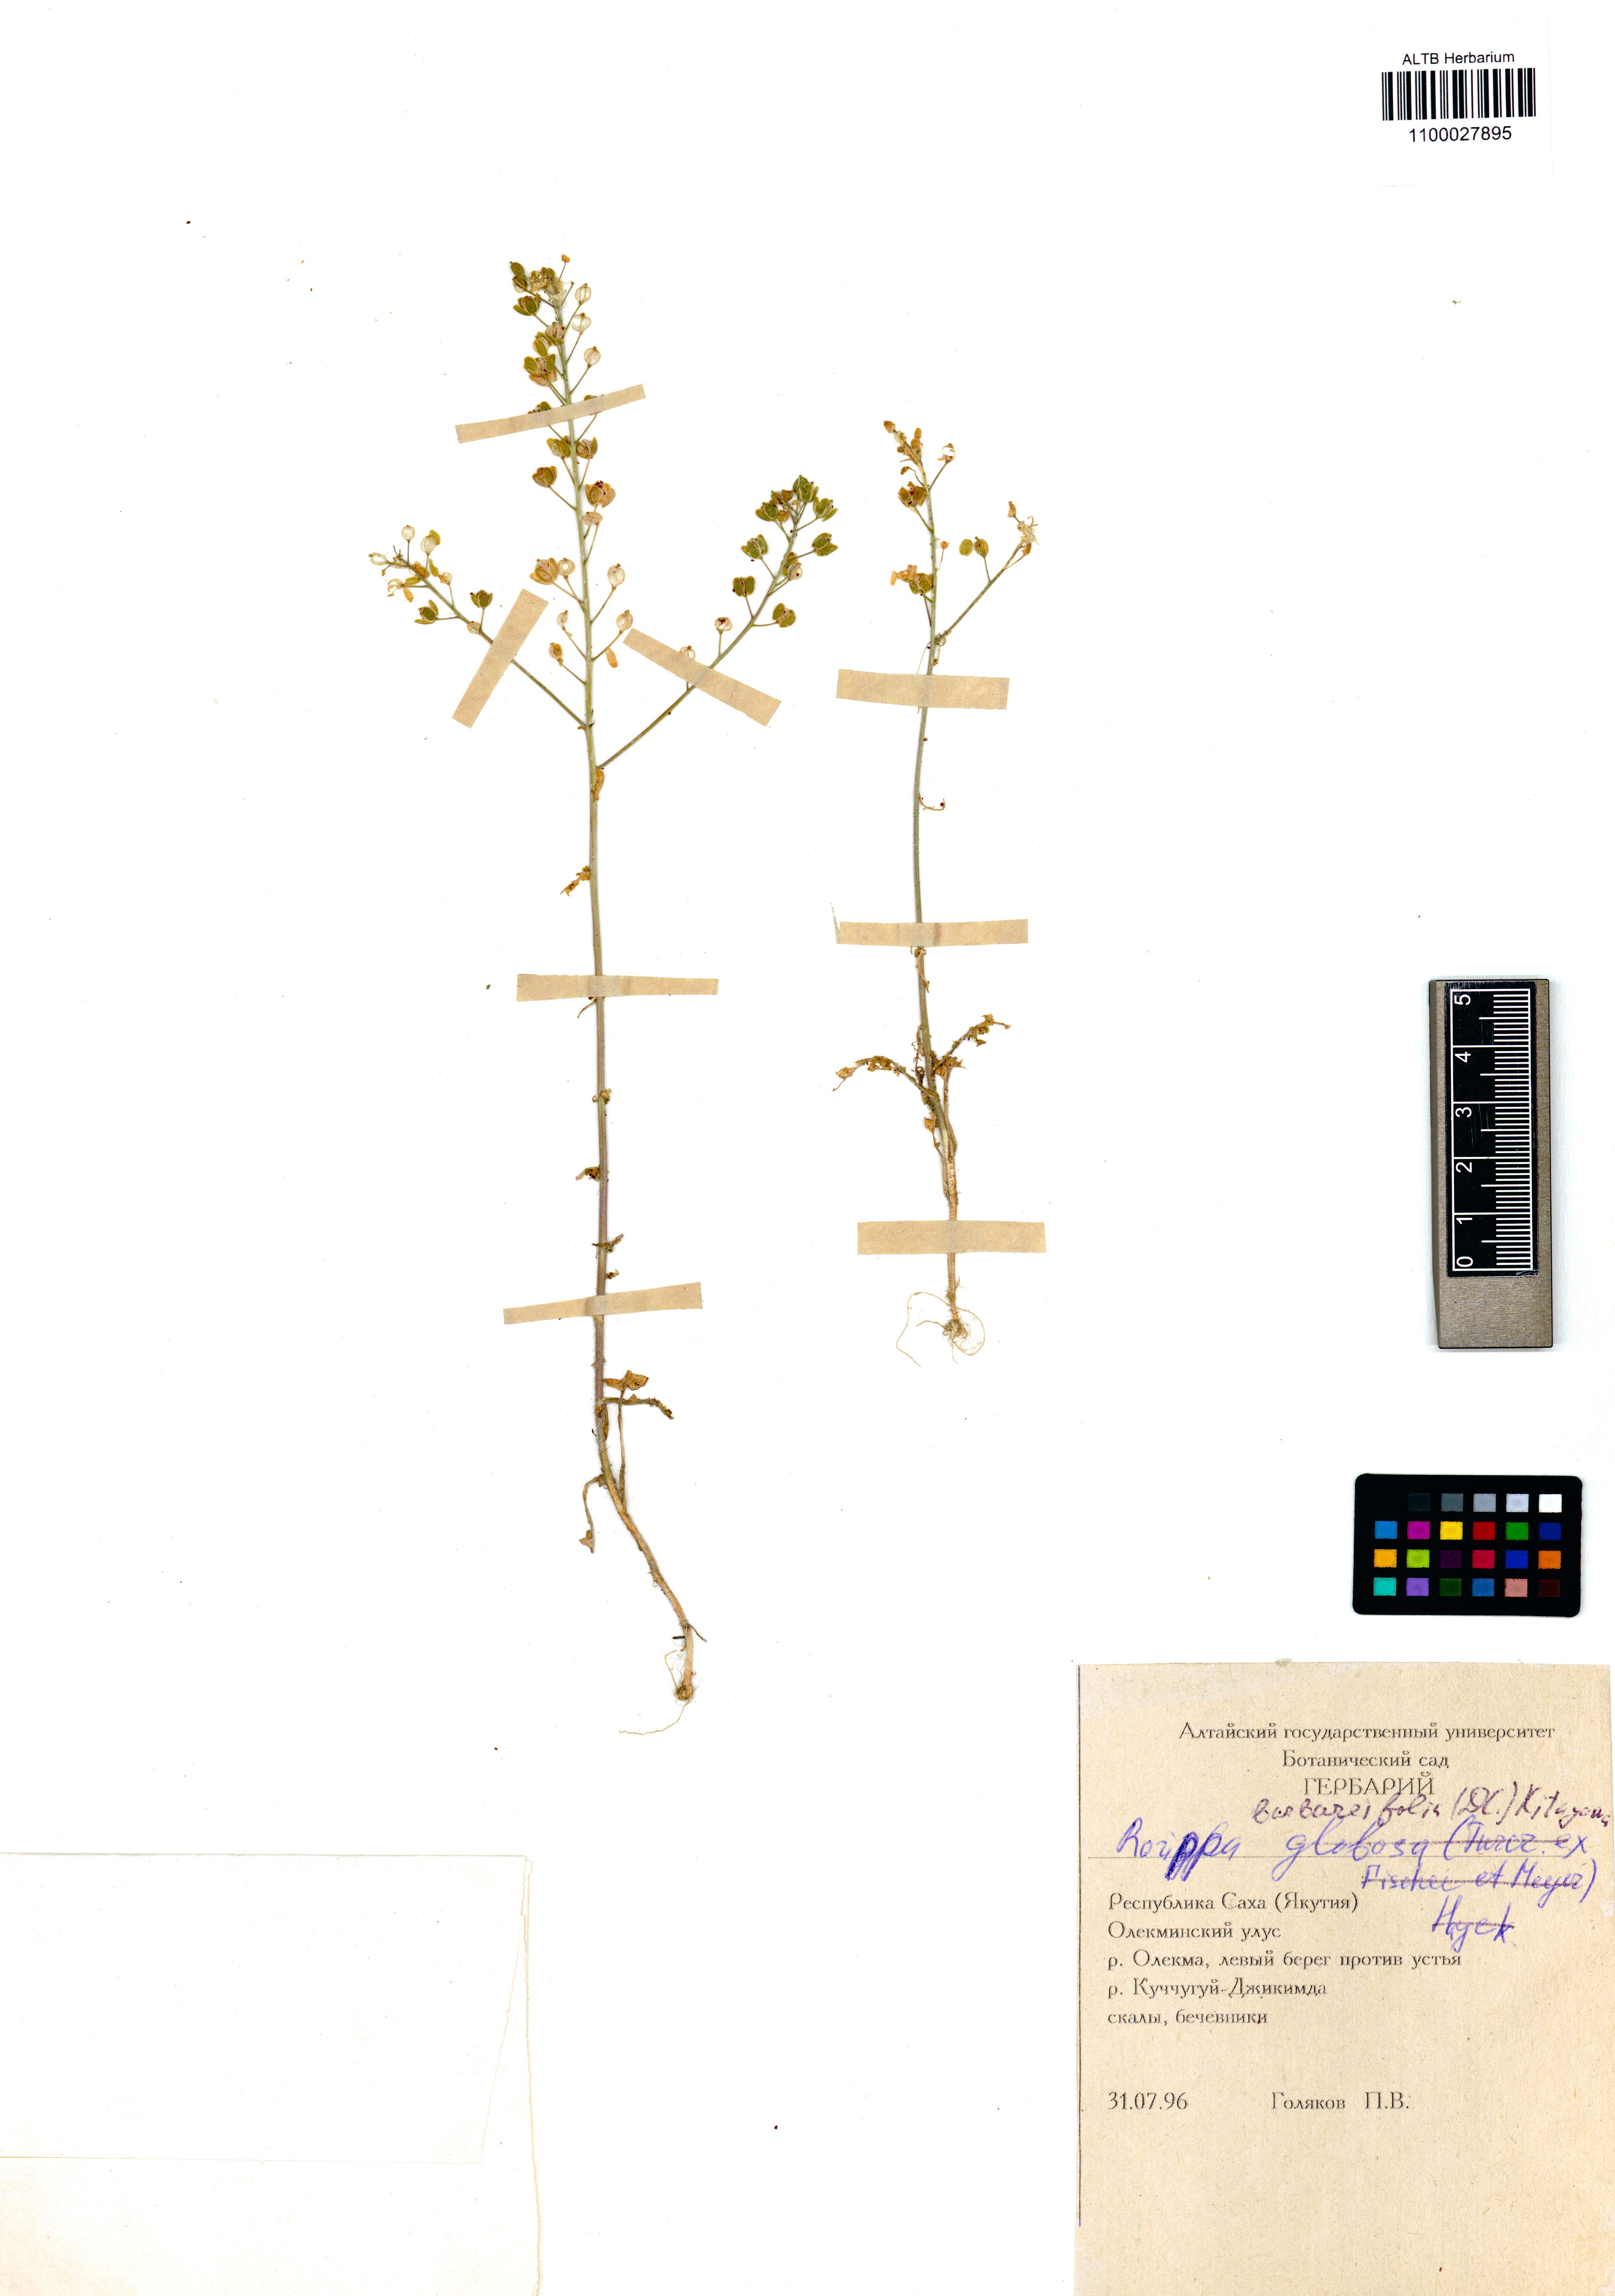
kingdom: Plantae
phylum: Tracheophyta
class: Magnoliopsida
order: Brassicales
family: Brassicaceae
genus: Rorippa
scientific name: Rorippa barbaraefolia
